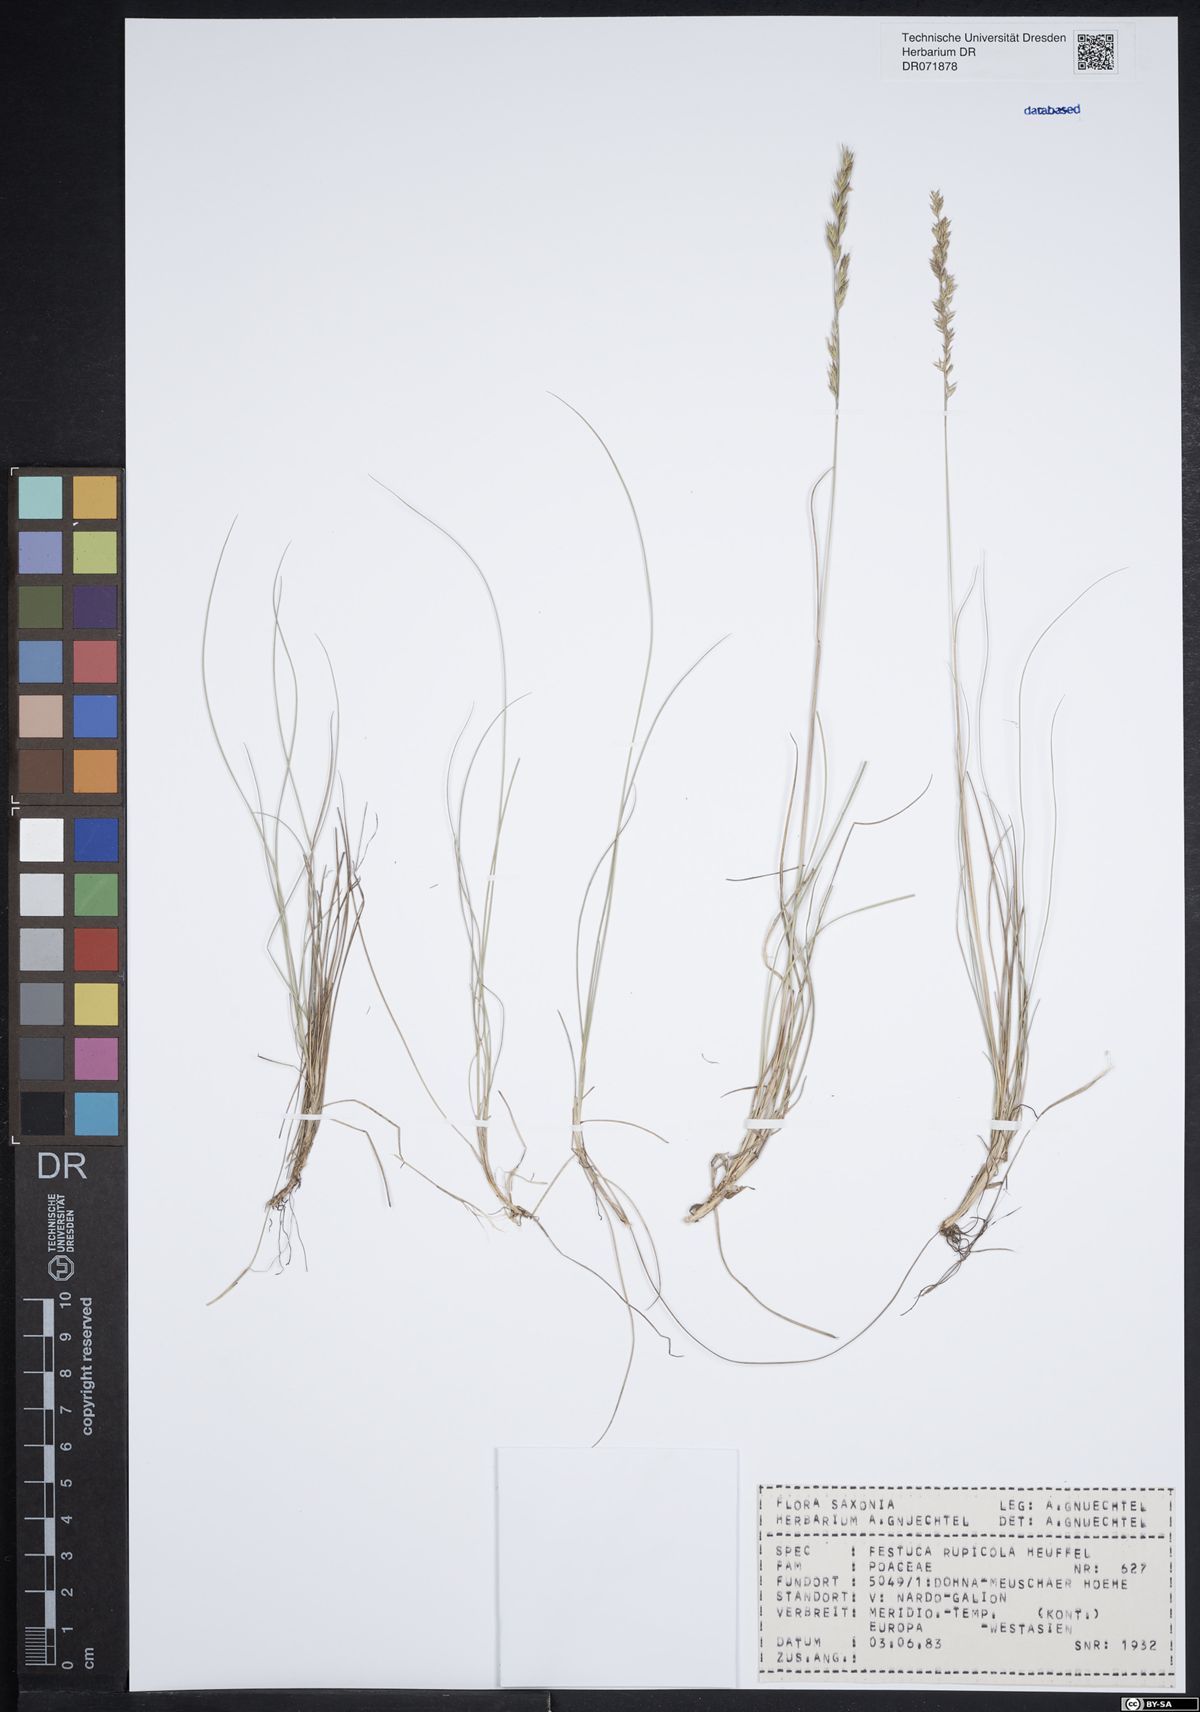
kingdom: Plantae
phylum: Tracheophyta
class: Liliopsida
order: Poales
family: Poaceae
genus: Festuca
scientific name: Festuca rupicola
